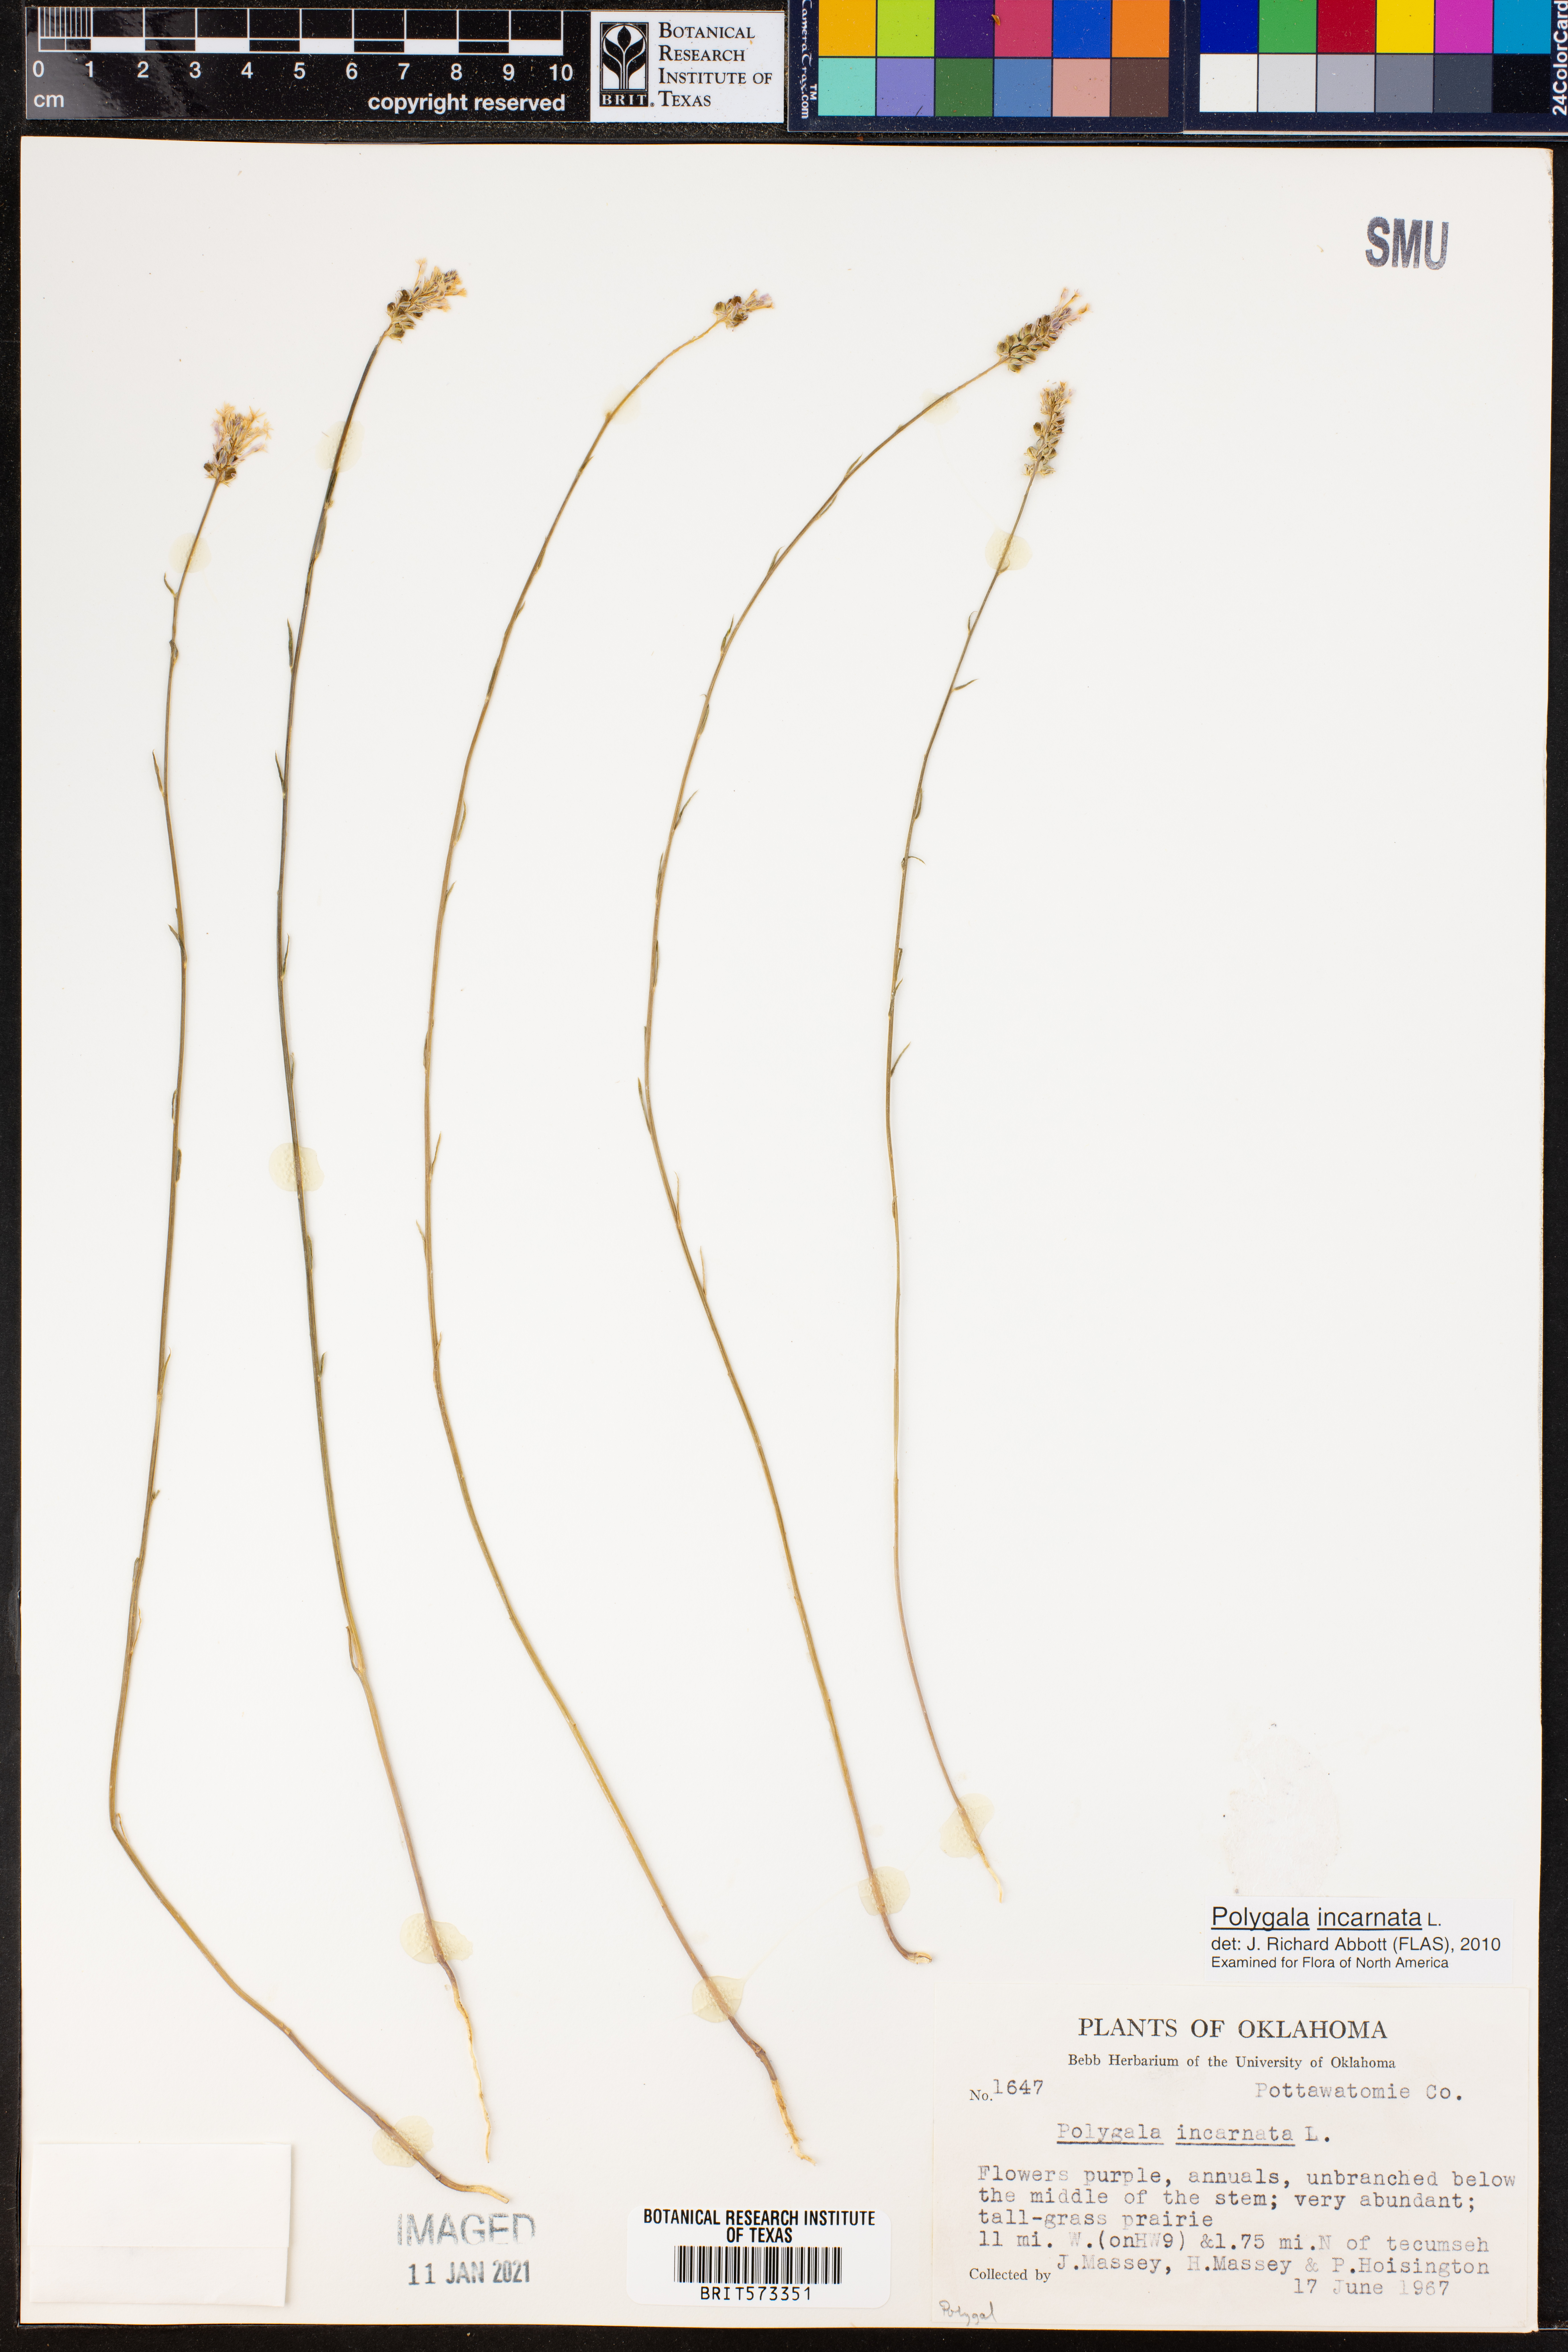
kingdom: Plantae
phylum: Tracheophyta
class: Magnoliopsida
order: Fabales
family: Polygalaceae
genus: Polygala
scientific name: Polygala incarnata
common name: Pink milkwort
